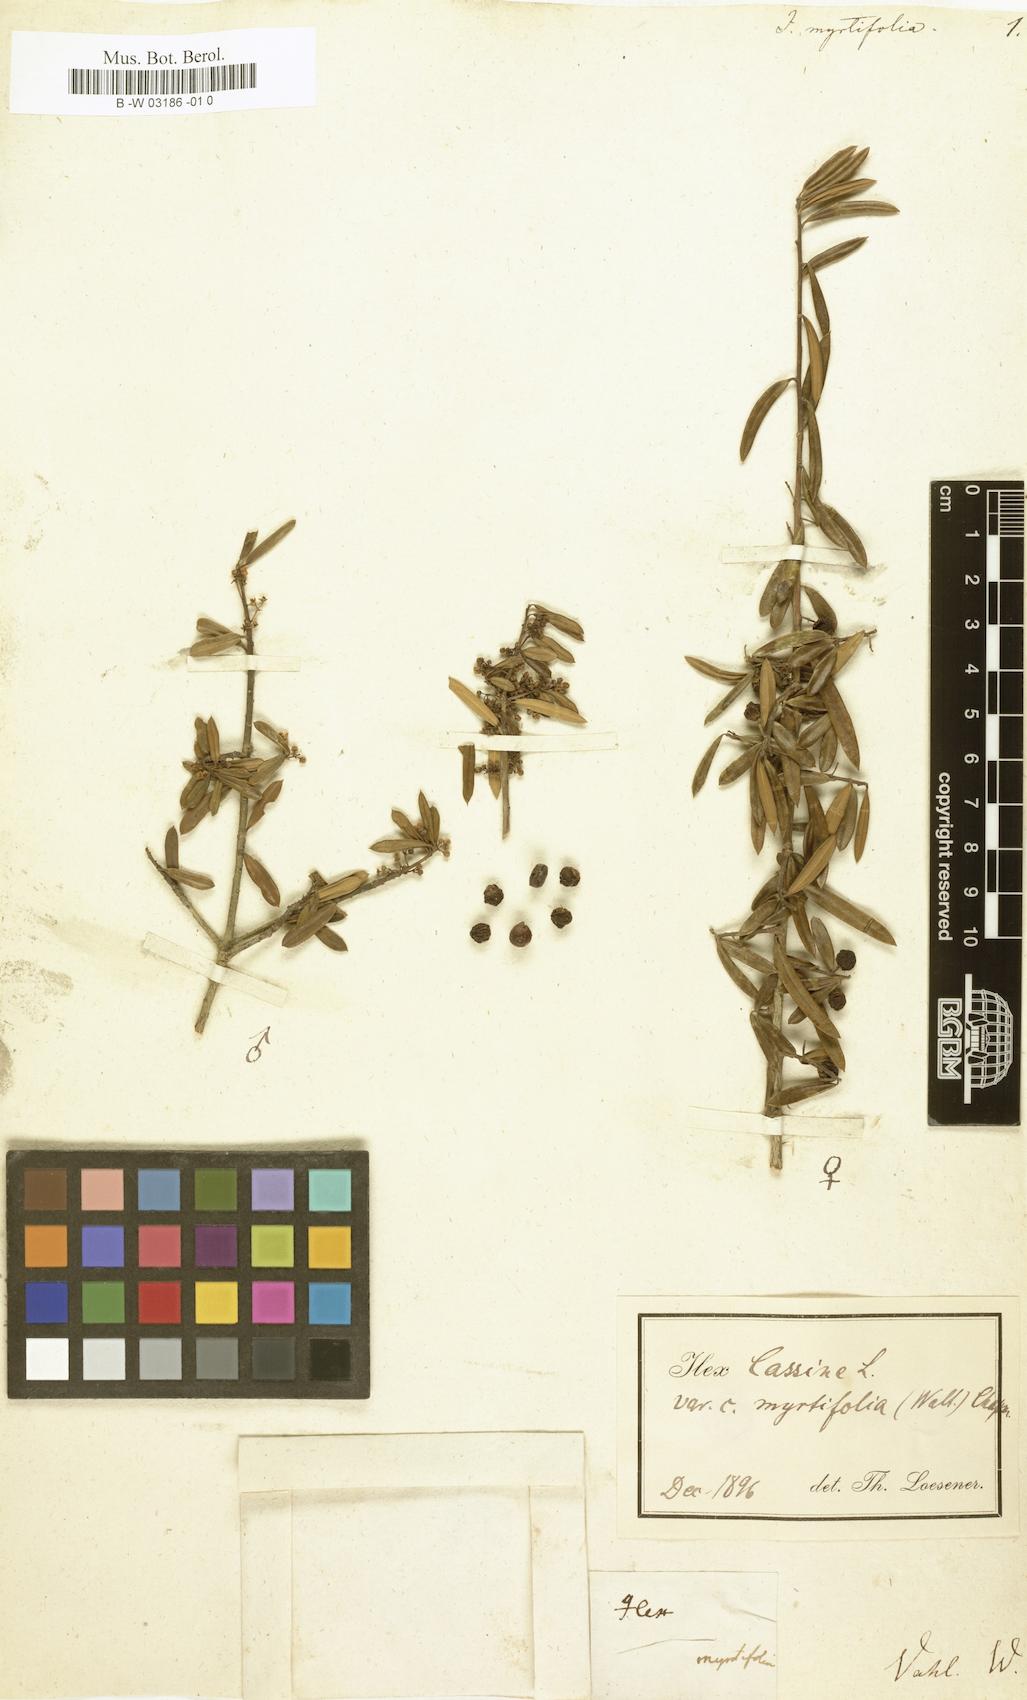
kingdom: Plantae
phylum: Tracheophyta
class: Magnoliopsida
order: Aquifoliales
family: Aquifoliaceae
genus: Ilex
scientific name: Ilex myrtifolia
